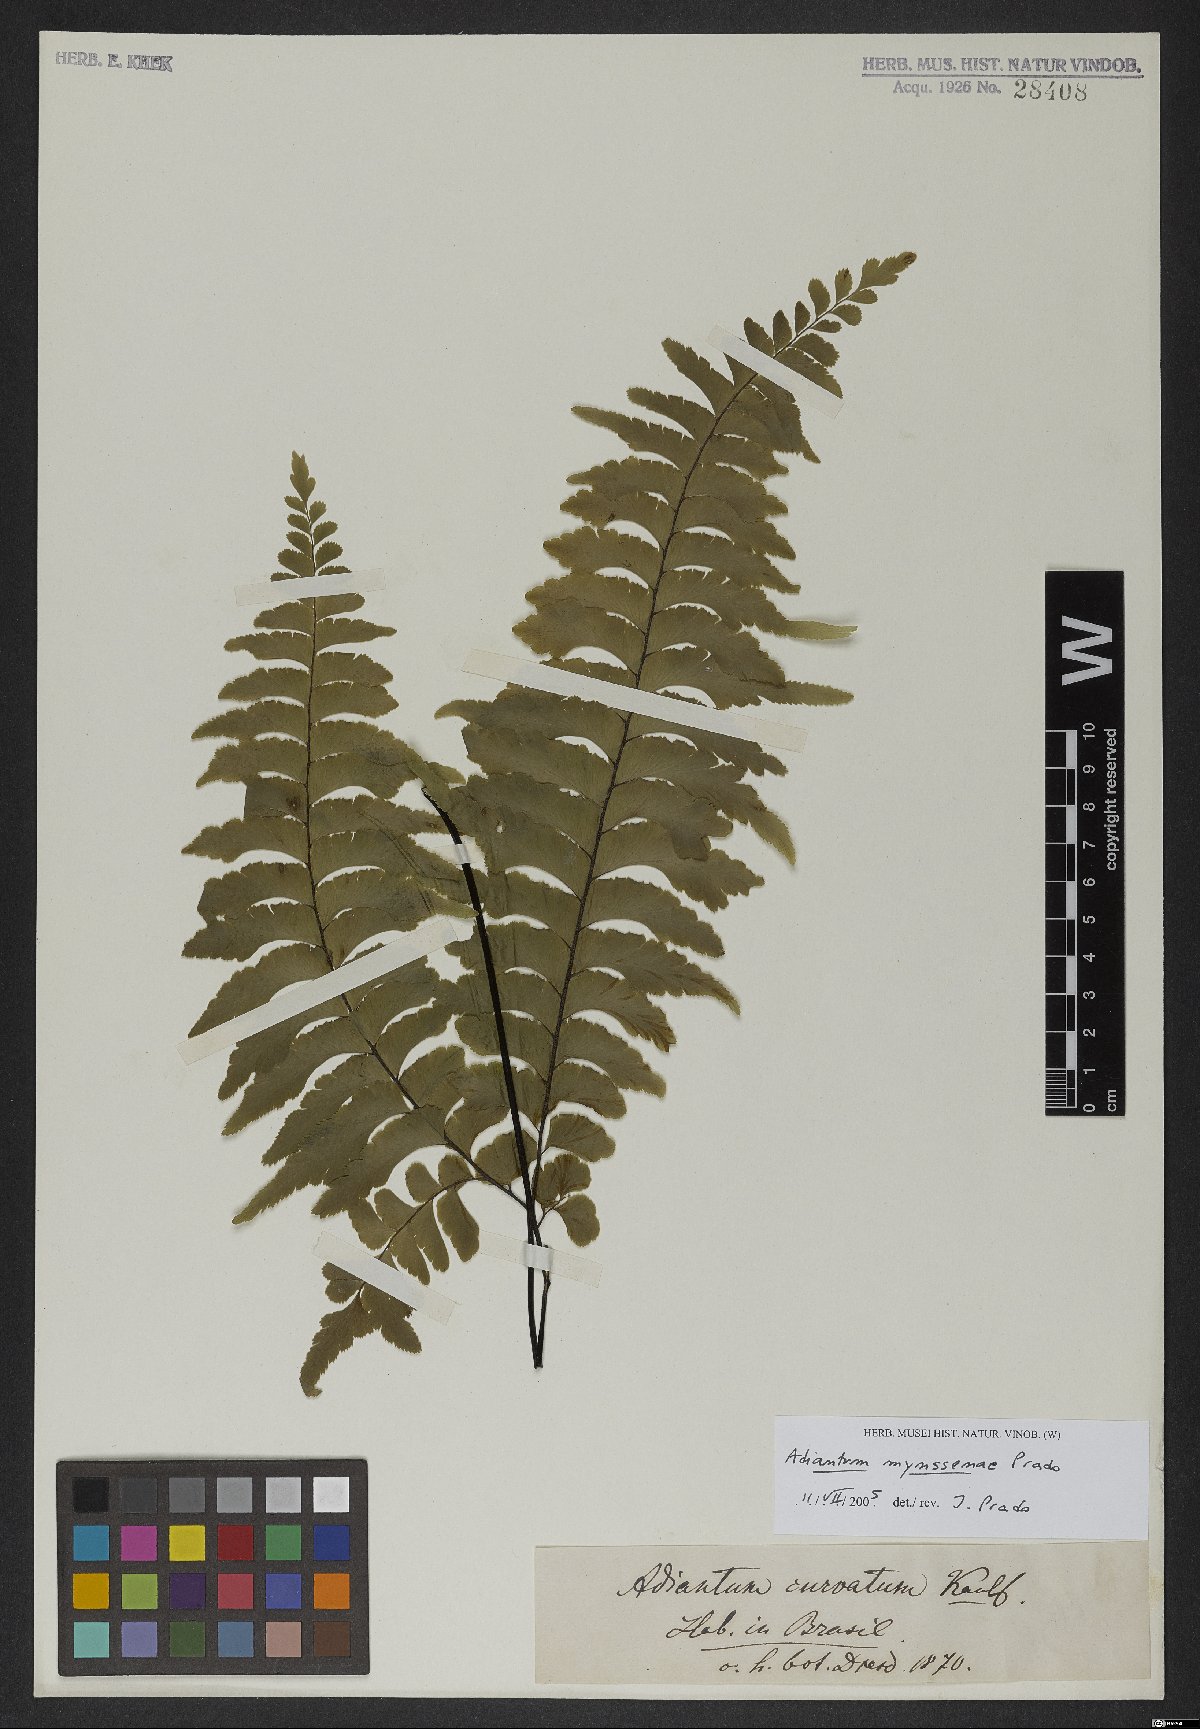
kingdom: Plantae
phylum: Tracheophyta
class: Polypodiopsida
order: Polypodiales
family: Pteridaceae
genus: Adiantum
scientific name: Adiantum mynsseniae
